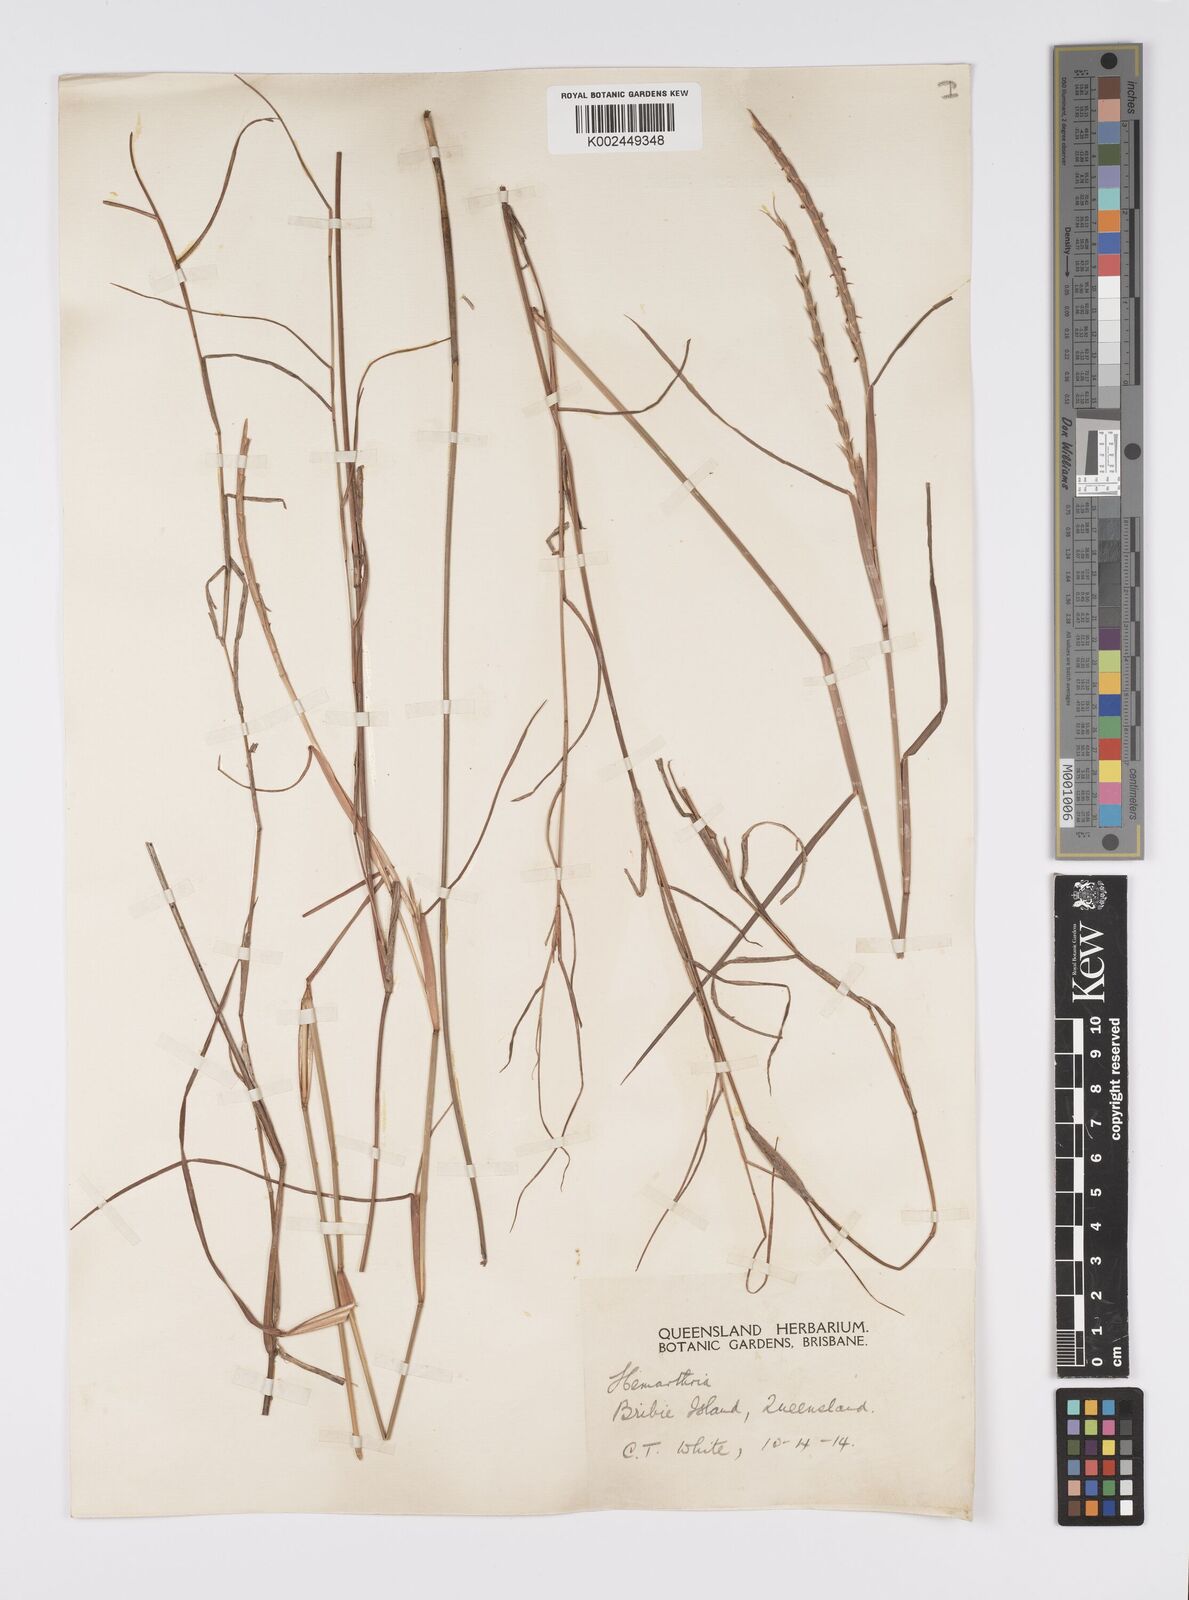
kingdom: Plantae
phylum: Tracheophyta
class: Liliopsida
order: Poales
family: Poaceae
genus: Hemarthria
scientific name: Hemarthria uncinata
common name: Matgrass
